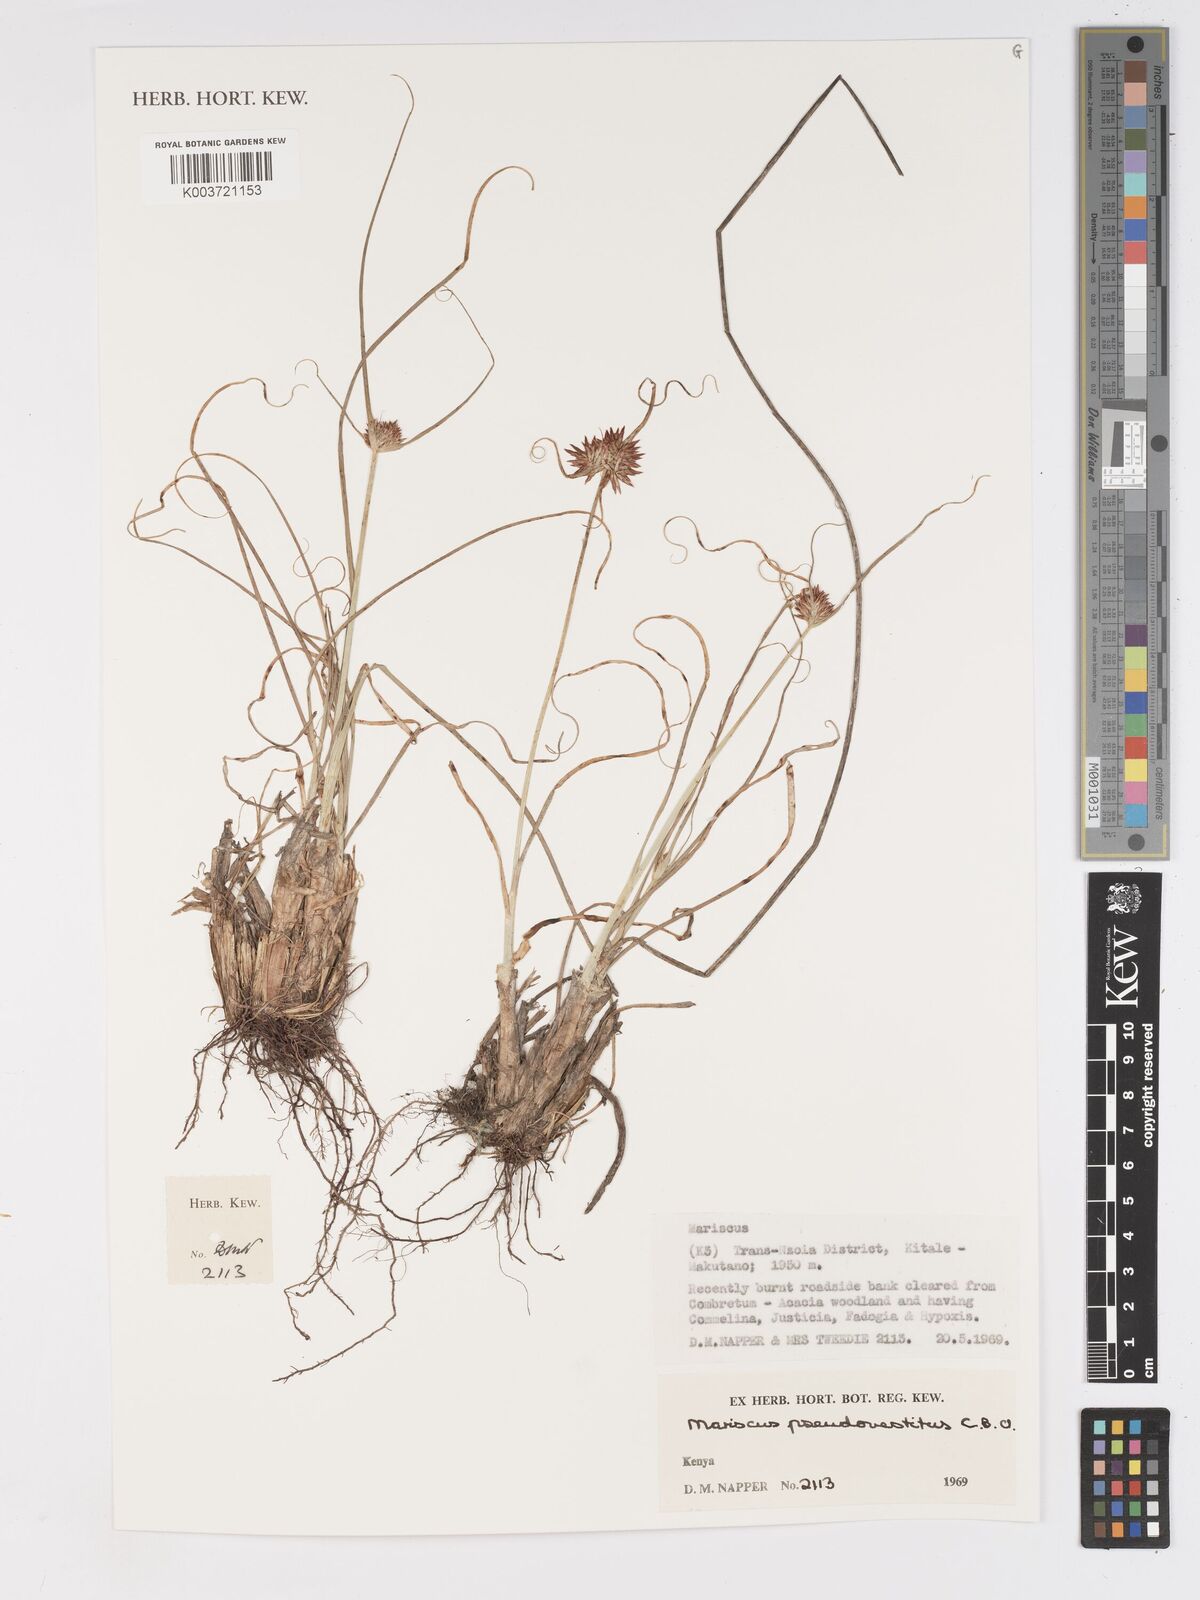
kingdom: Plantae
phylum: Tracheophyta
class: Liliopsida
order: Poales
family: Cyperaceae
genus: Cyperus
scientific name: Cyperus pseudovestitus
